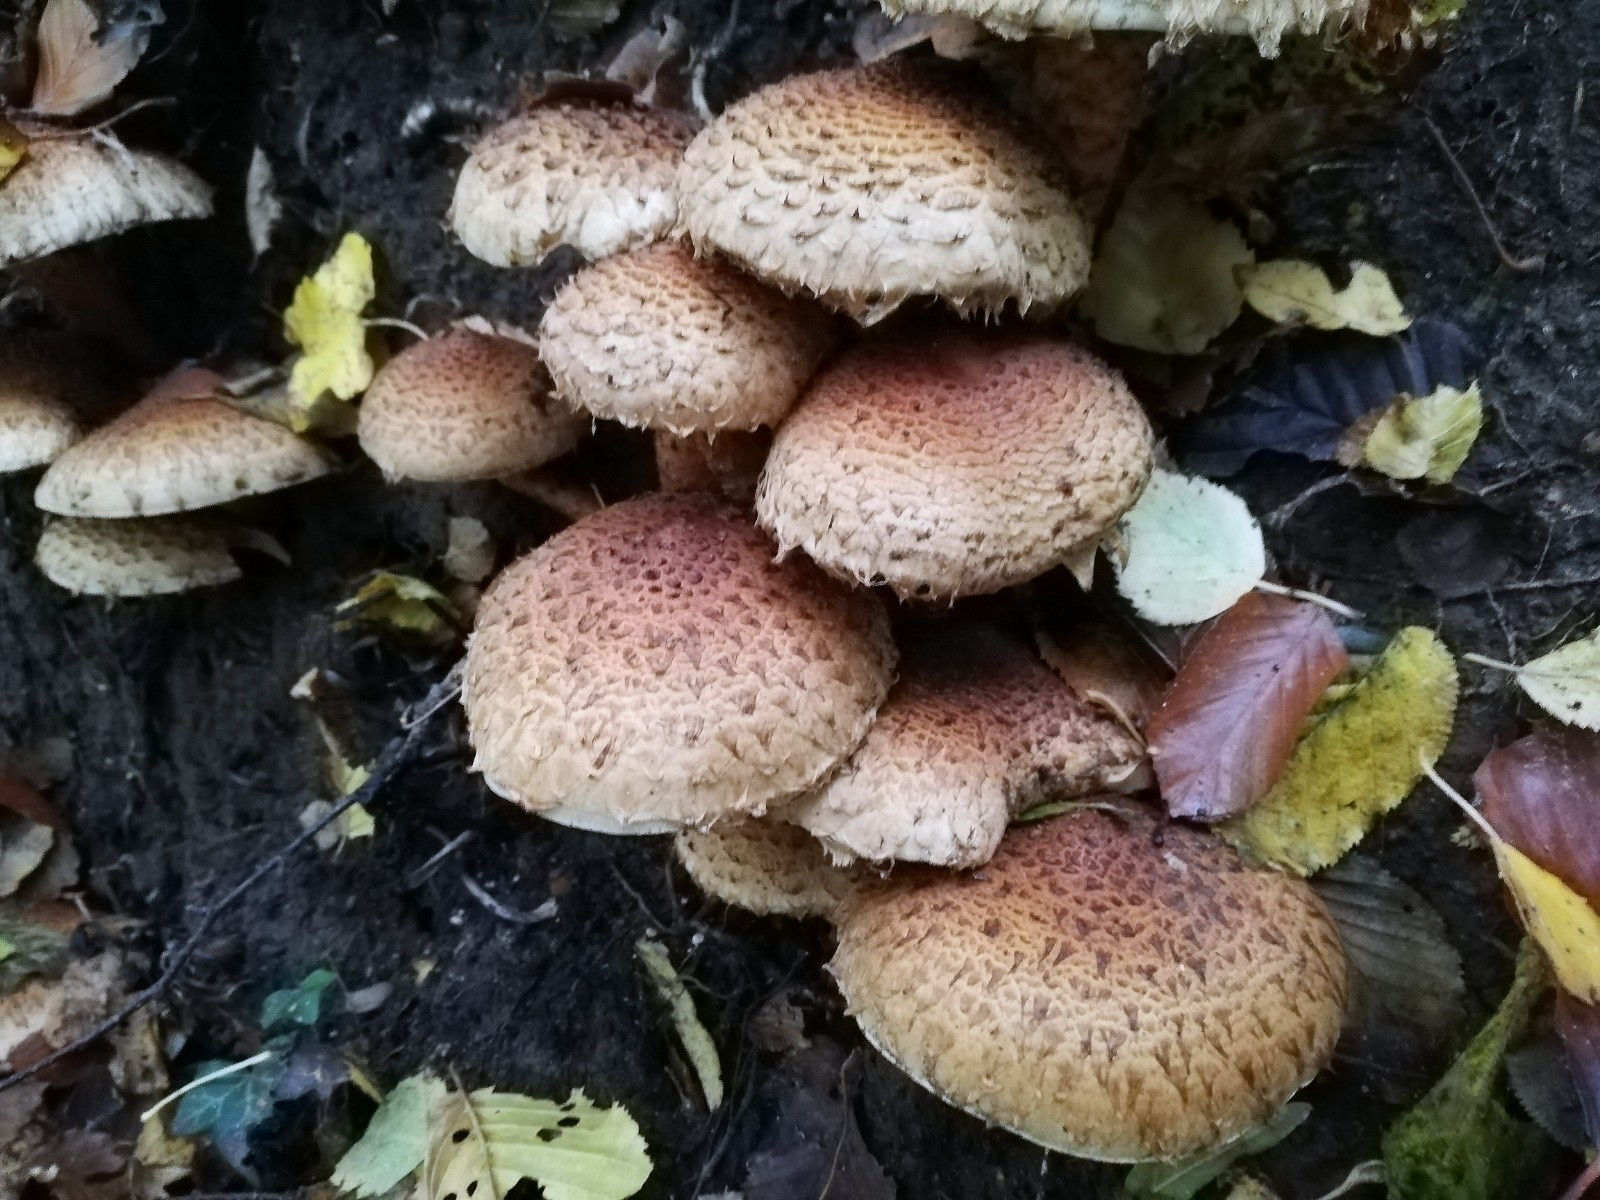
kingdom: Fungi
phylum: Basidiomycota
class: Agaricomycetes
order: Agaricales
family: Strophariaceae
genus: Pholiota
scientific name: Pholiota squarrosa
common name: krumskællet skælhat
